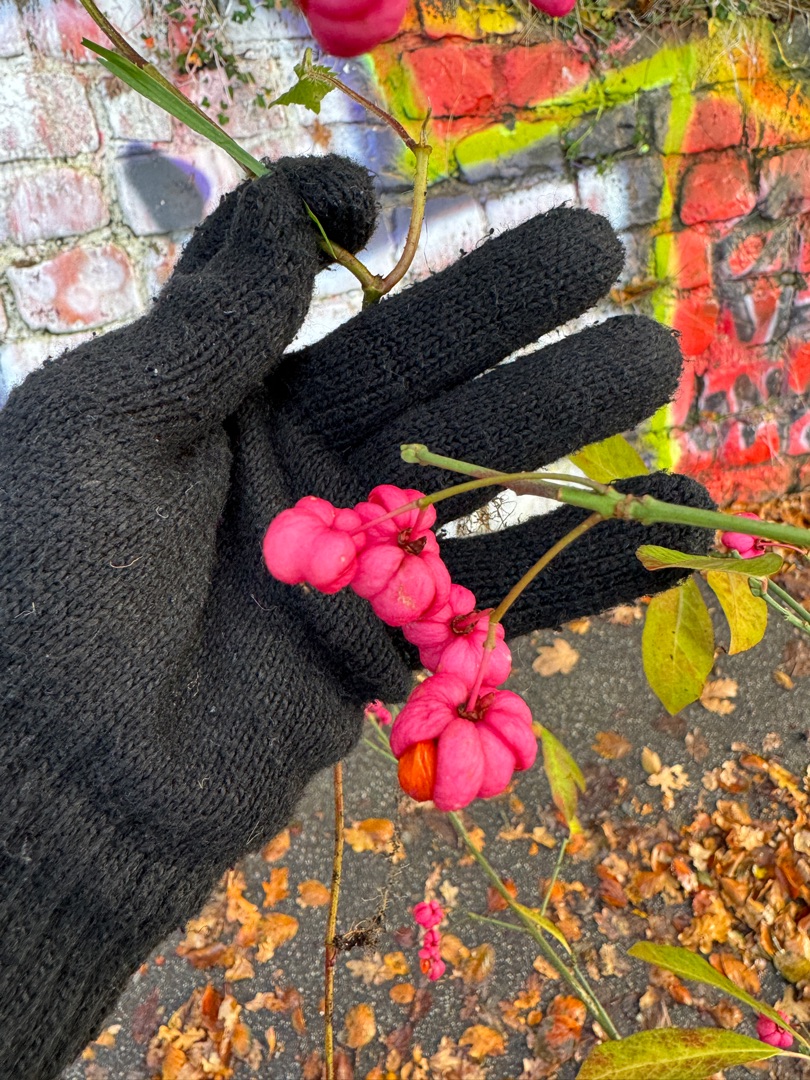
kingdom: Plantae
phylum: Tracheophyta
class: Magnoliopsida
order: Celastrales
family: Celastraceae
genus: Euonymus
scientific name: Euonymus europaeus
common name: Benved
